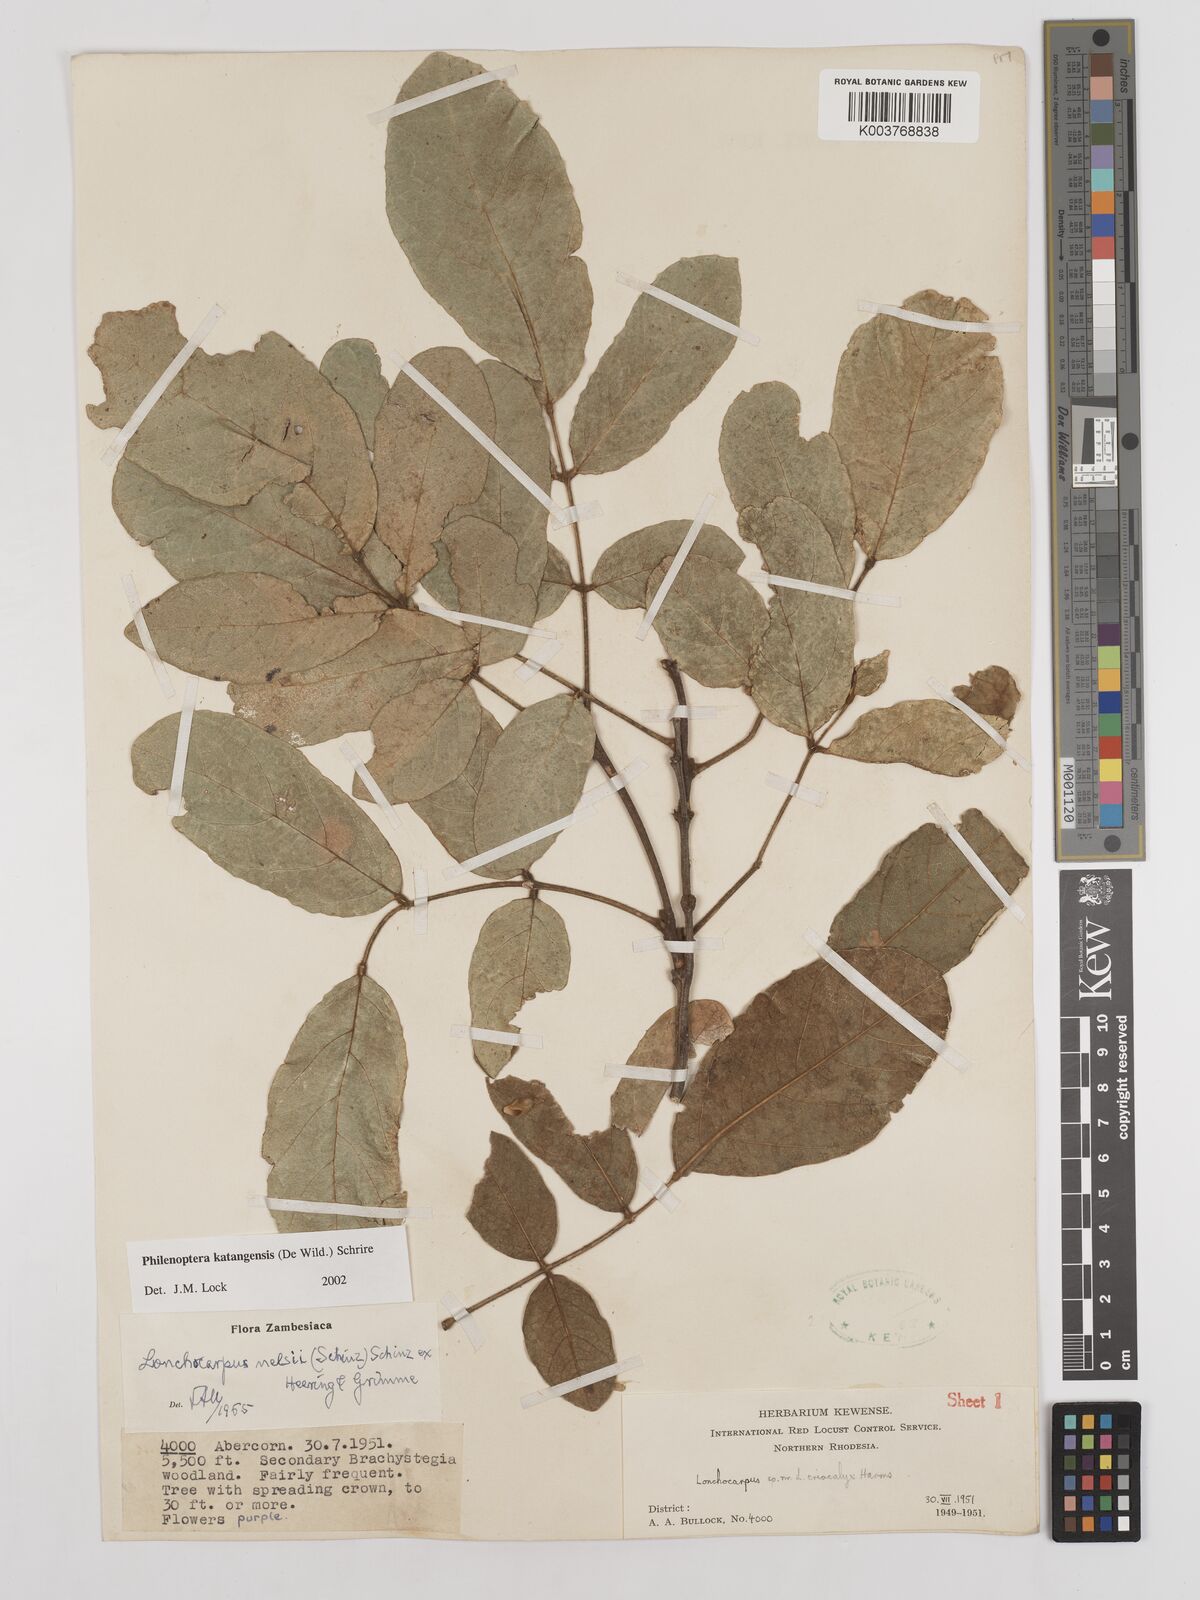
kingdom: Plantae
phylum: Tracheophyta
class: Magnoliopsida
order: Fabales
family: Fabaceae
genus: Philenoptera
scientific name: Philenoptera katangensis
